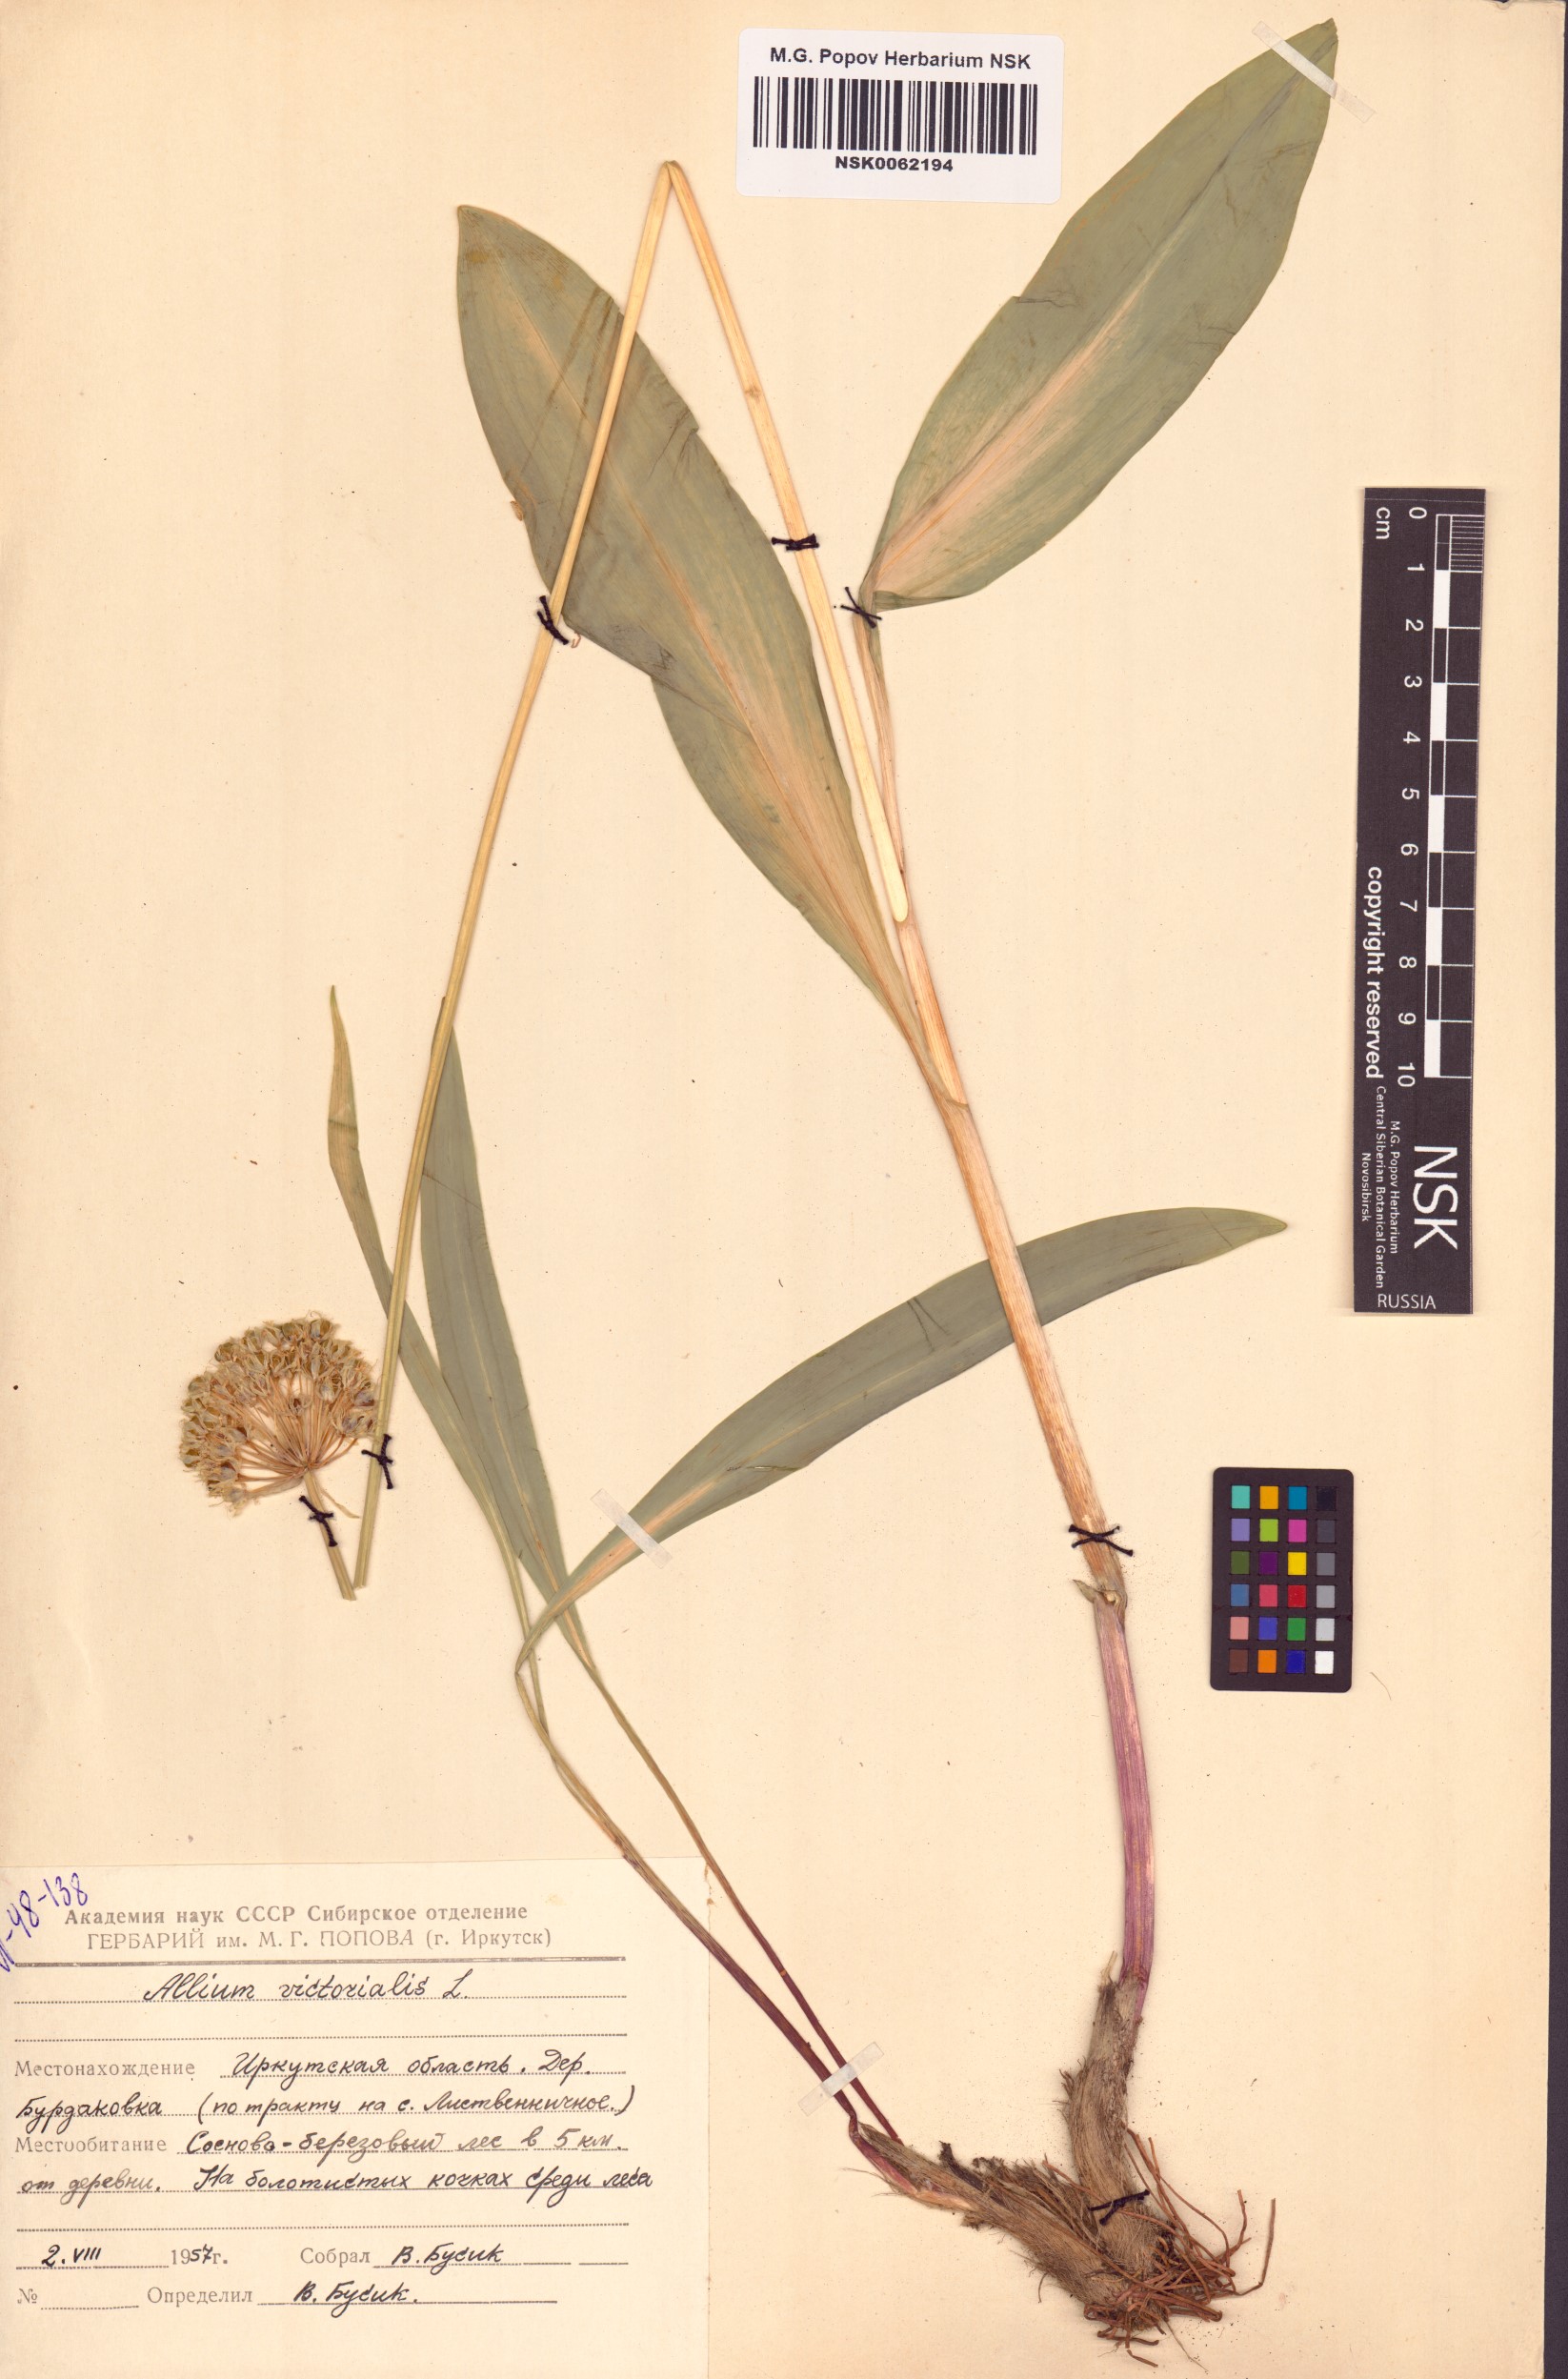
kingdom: Plantae
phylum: Tracheophyta
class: Liliopsida
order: Asparagales
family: Amaryllidaceae
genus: Allium
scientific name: Allium victorialis
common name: Alpine leek
